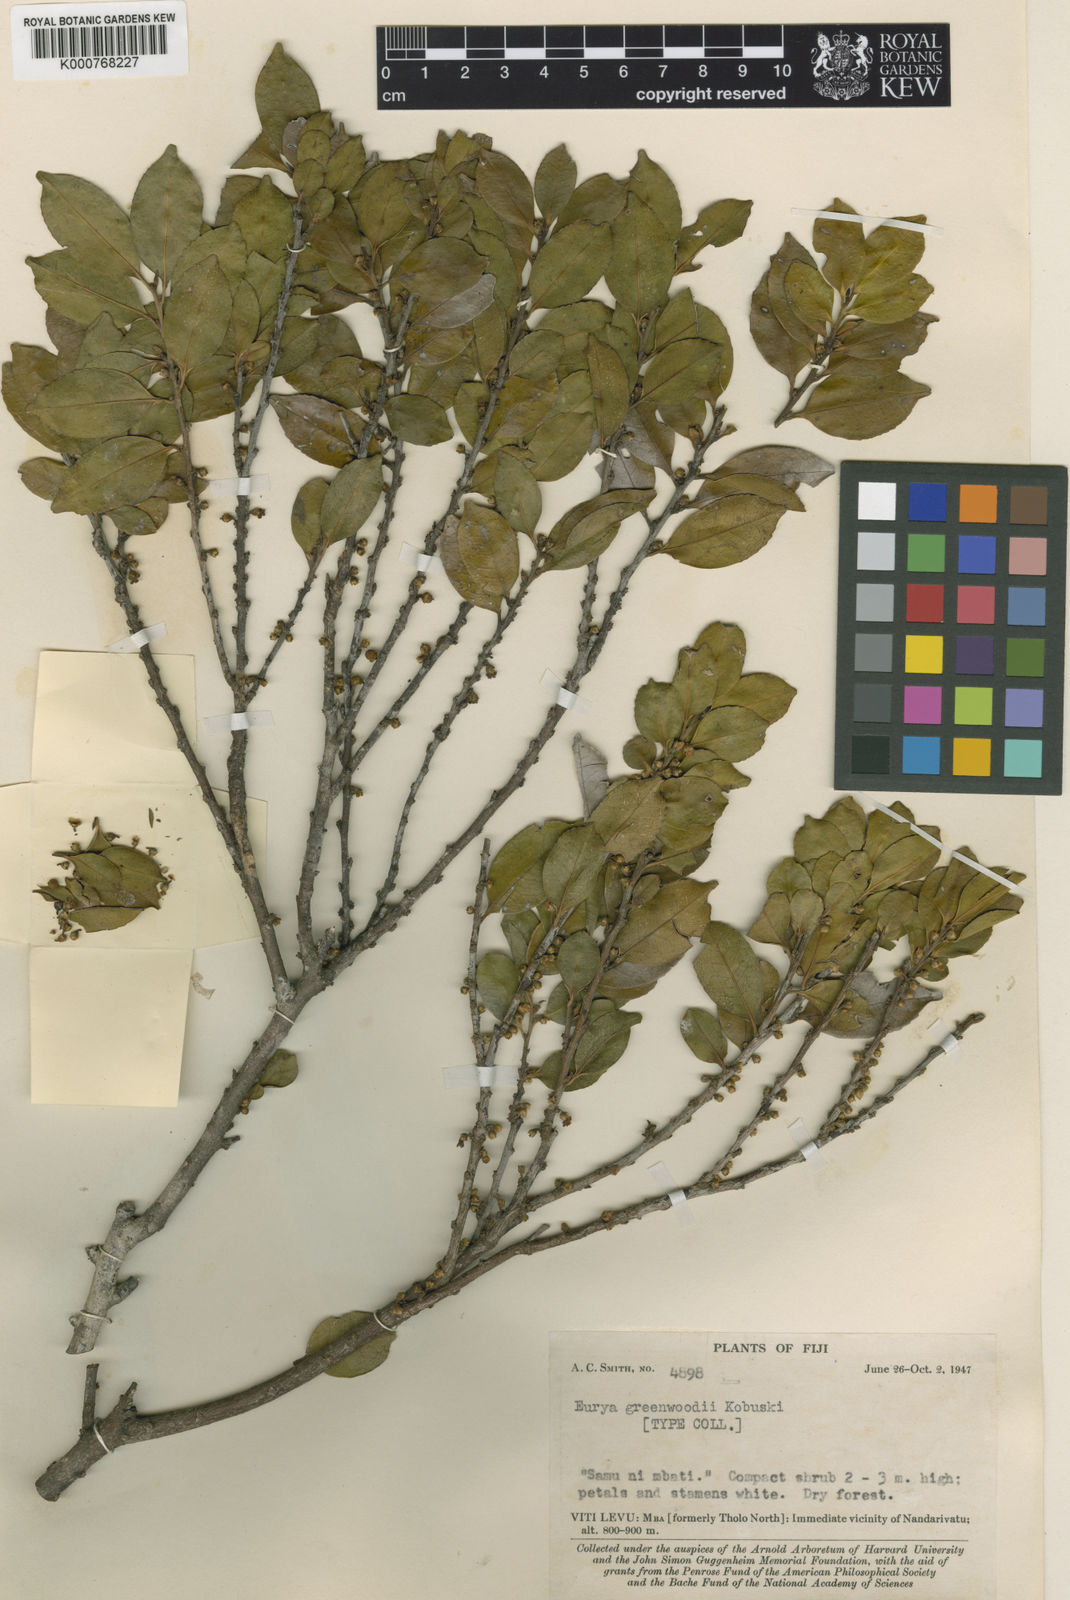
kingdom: Plantae
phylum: Tracheophyta
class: Magnoliopsida
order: Ericales
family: Pentaphylacaceae
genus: Eurya
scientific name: Eurya greenwoodii
